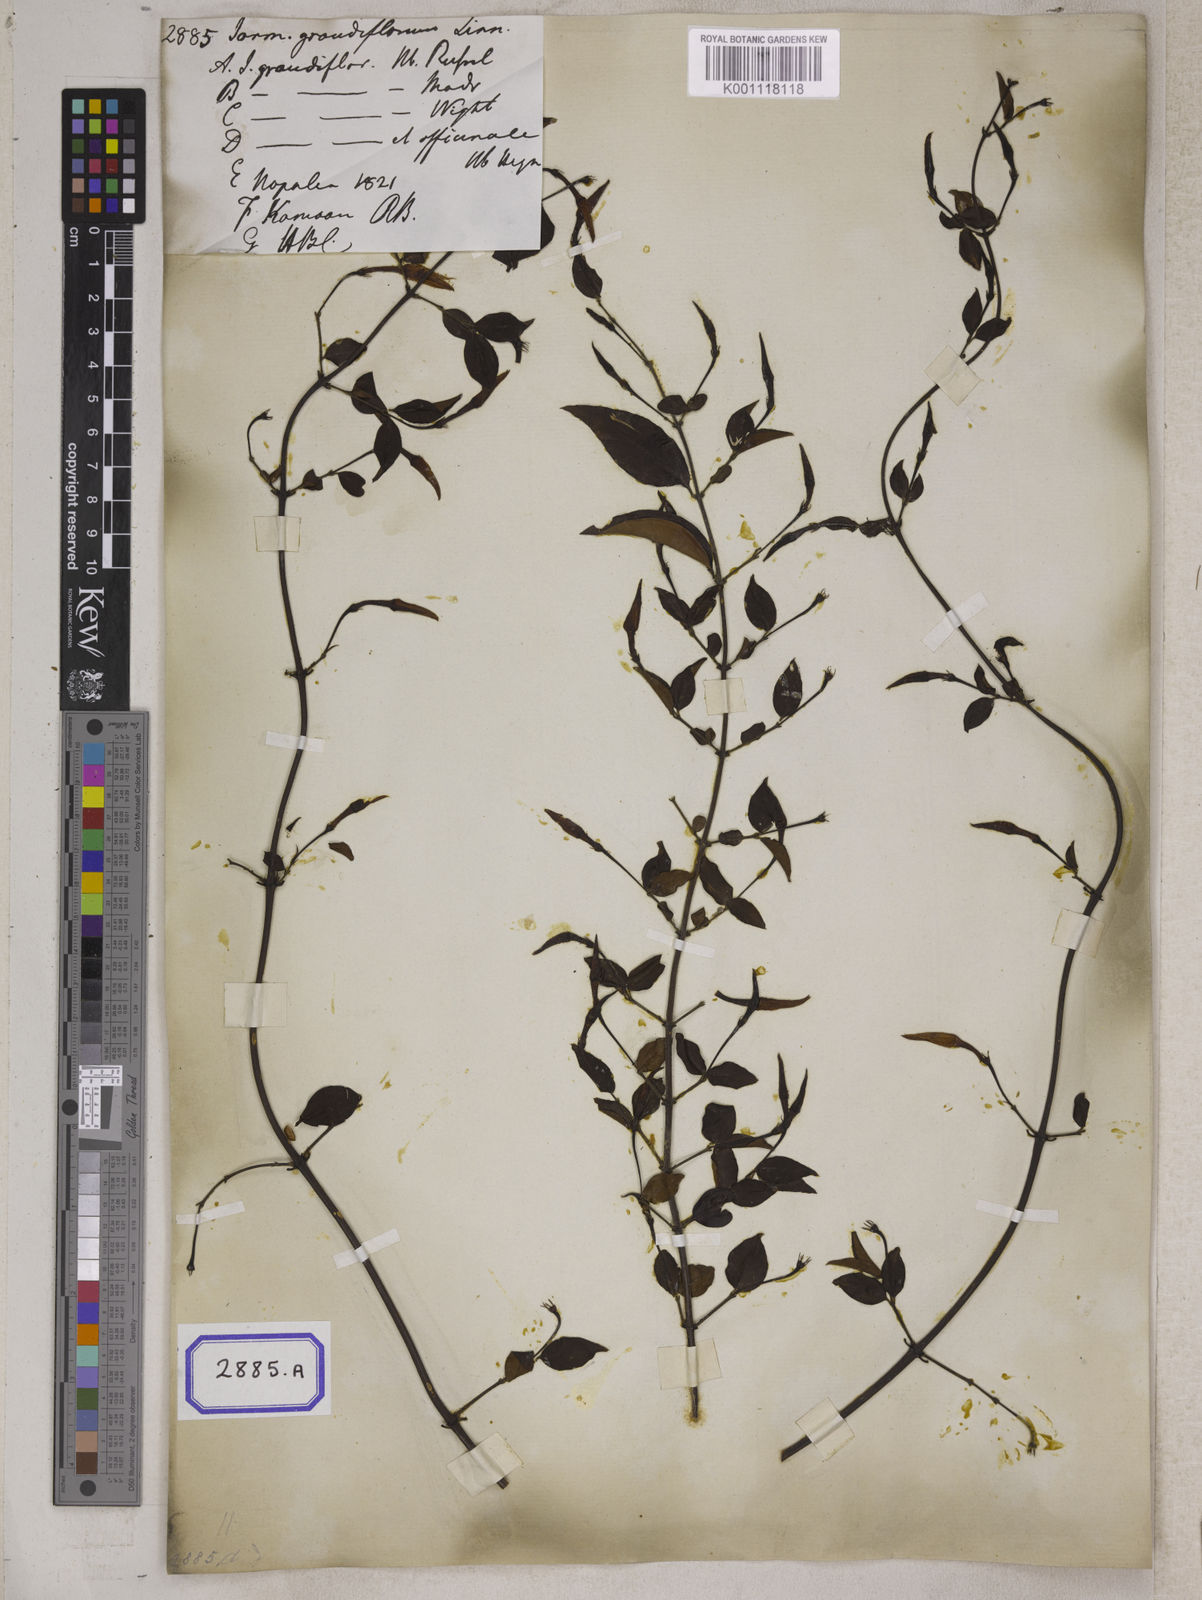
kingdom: Plantae
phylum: Tracheophyta
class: Magnoliopsida
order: Lamiales
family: Oleaceae
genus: Jasminum
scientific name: Jasminum grandiflorum
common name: Catalonian jasmine
